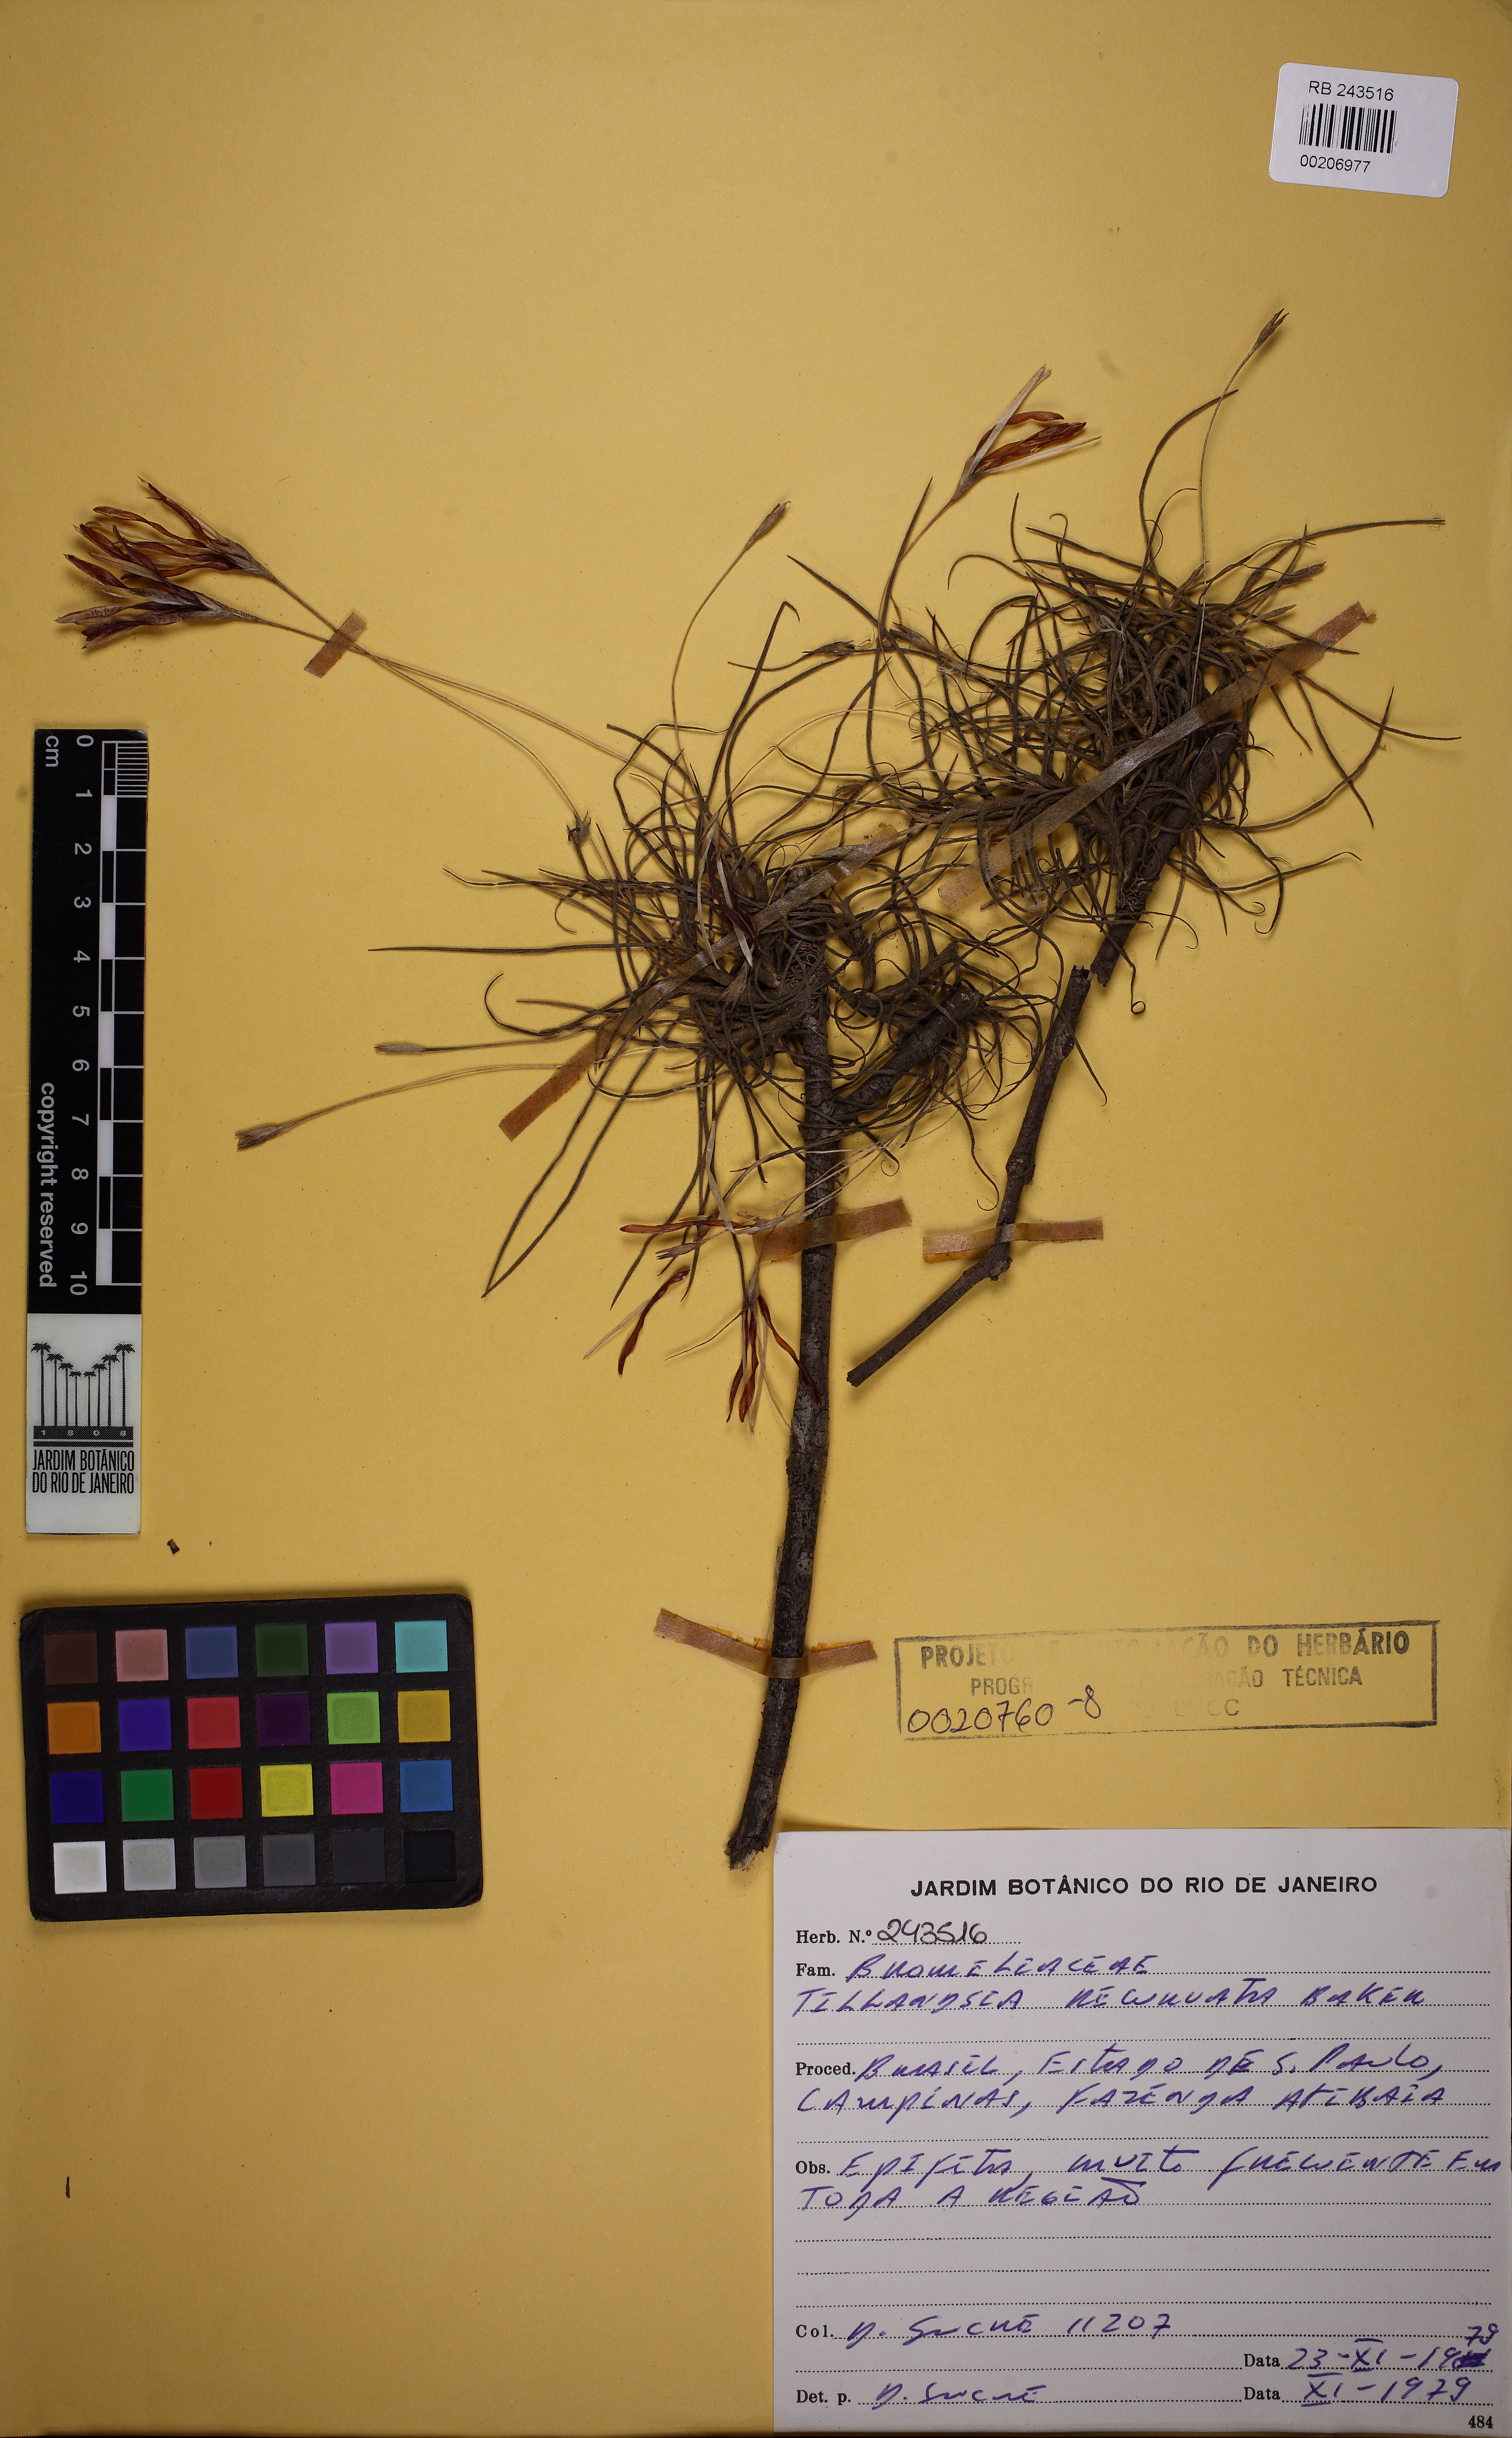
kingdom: Plantae
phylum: Tracheophyta
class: Liliopsida
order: Poales
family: Bromeliaceae
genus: Tillandsia
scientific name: Tillandsia recurvata
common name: Small ballmoss
